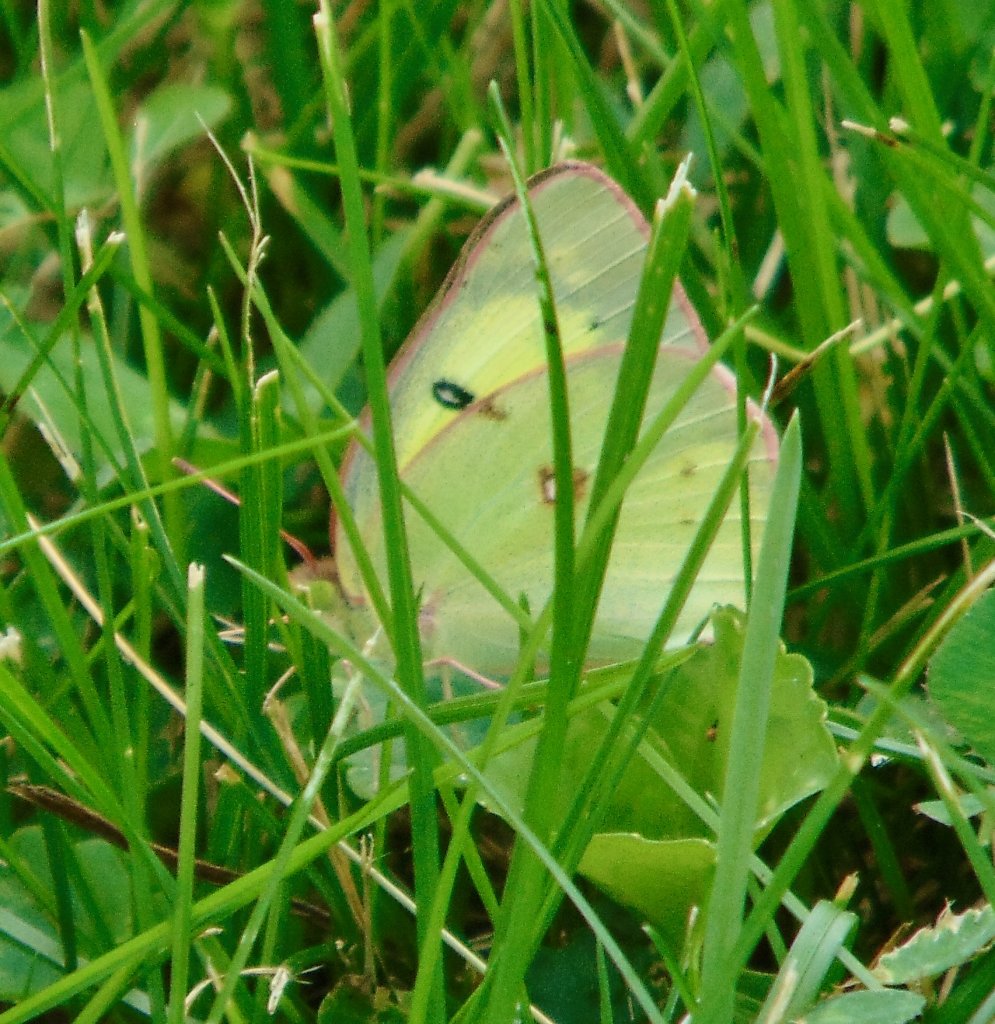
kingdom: Animalia
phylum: Arthropoda
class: Insecta
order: Lepidoptera
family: Pieridae
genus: Colias
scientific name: Colias philodice
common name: Clouded Sulphur
